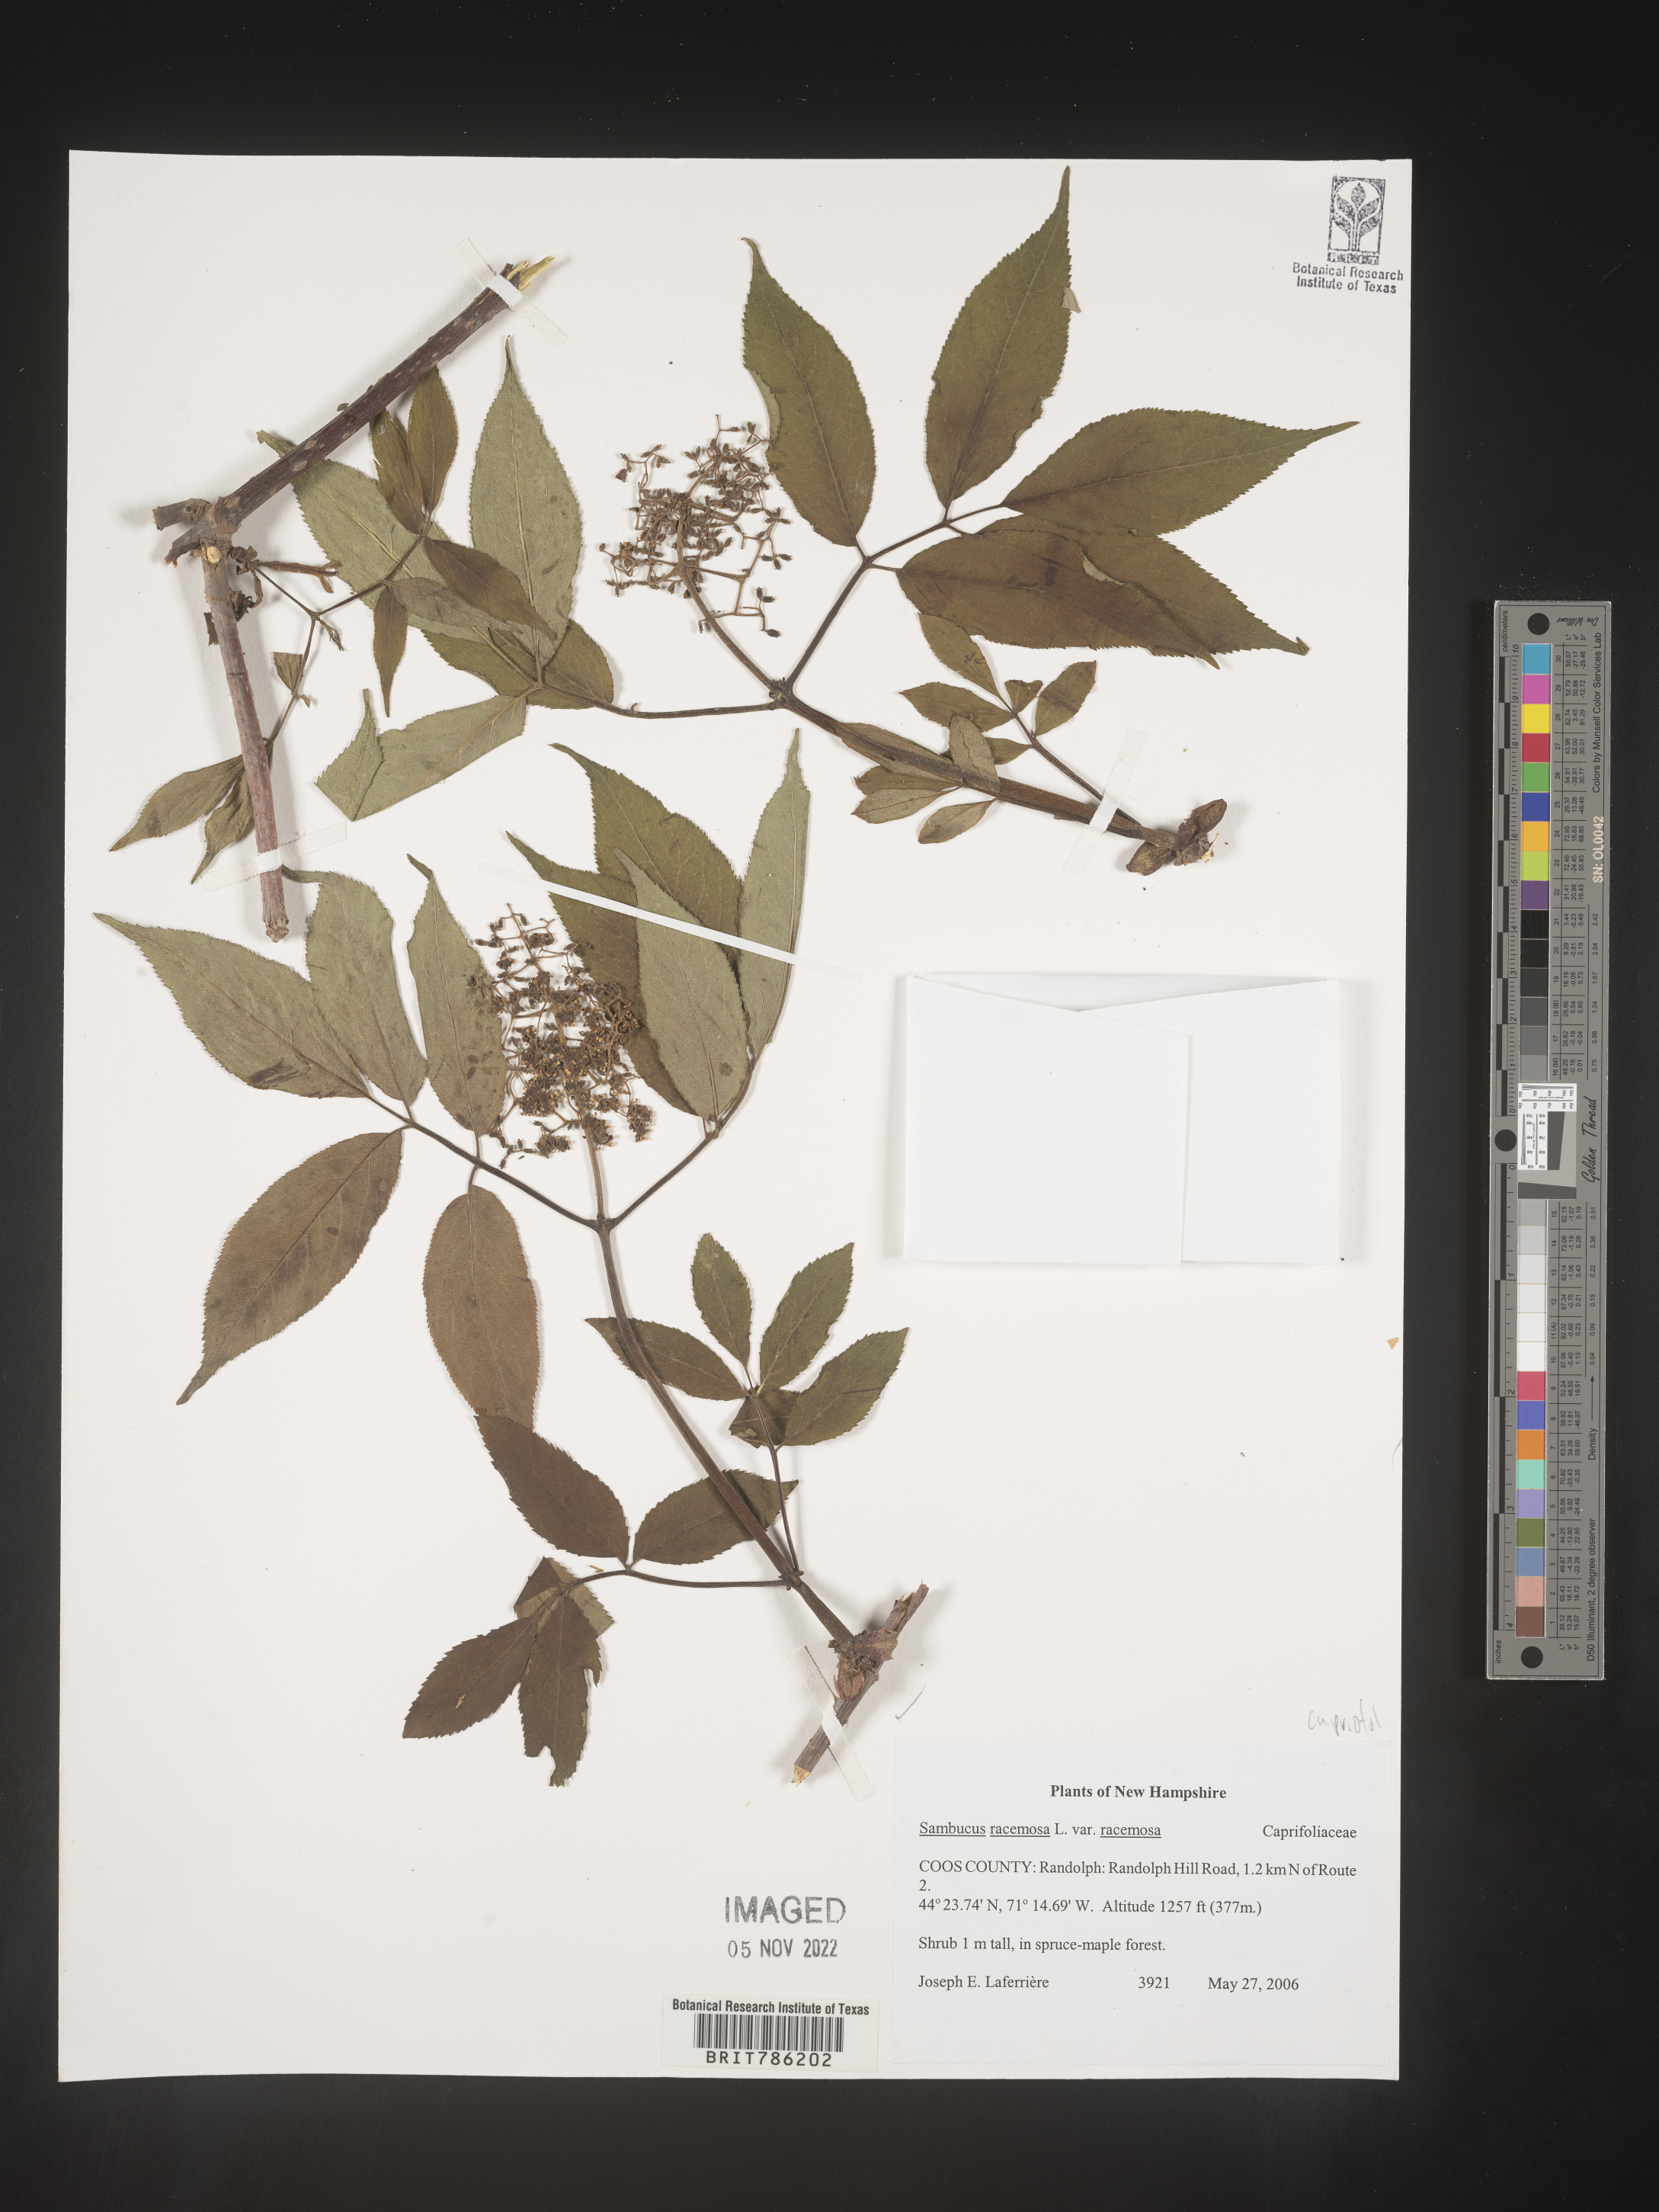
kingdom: Plantae
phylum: Tracheophyta
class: Magnoliopsida
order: Dipsacales
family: Viburnaceae
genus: Sambucus
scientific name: Sambucus
